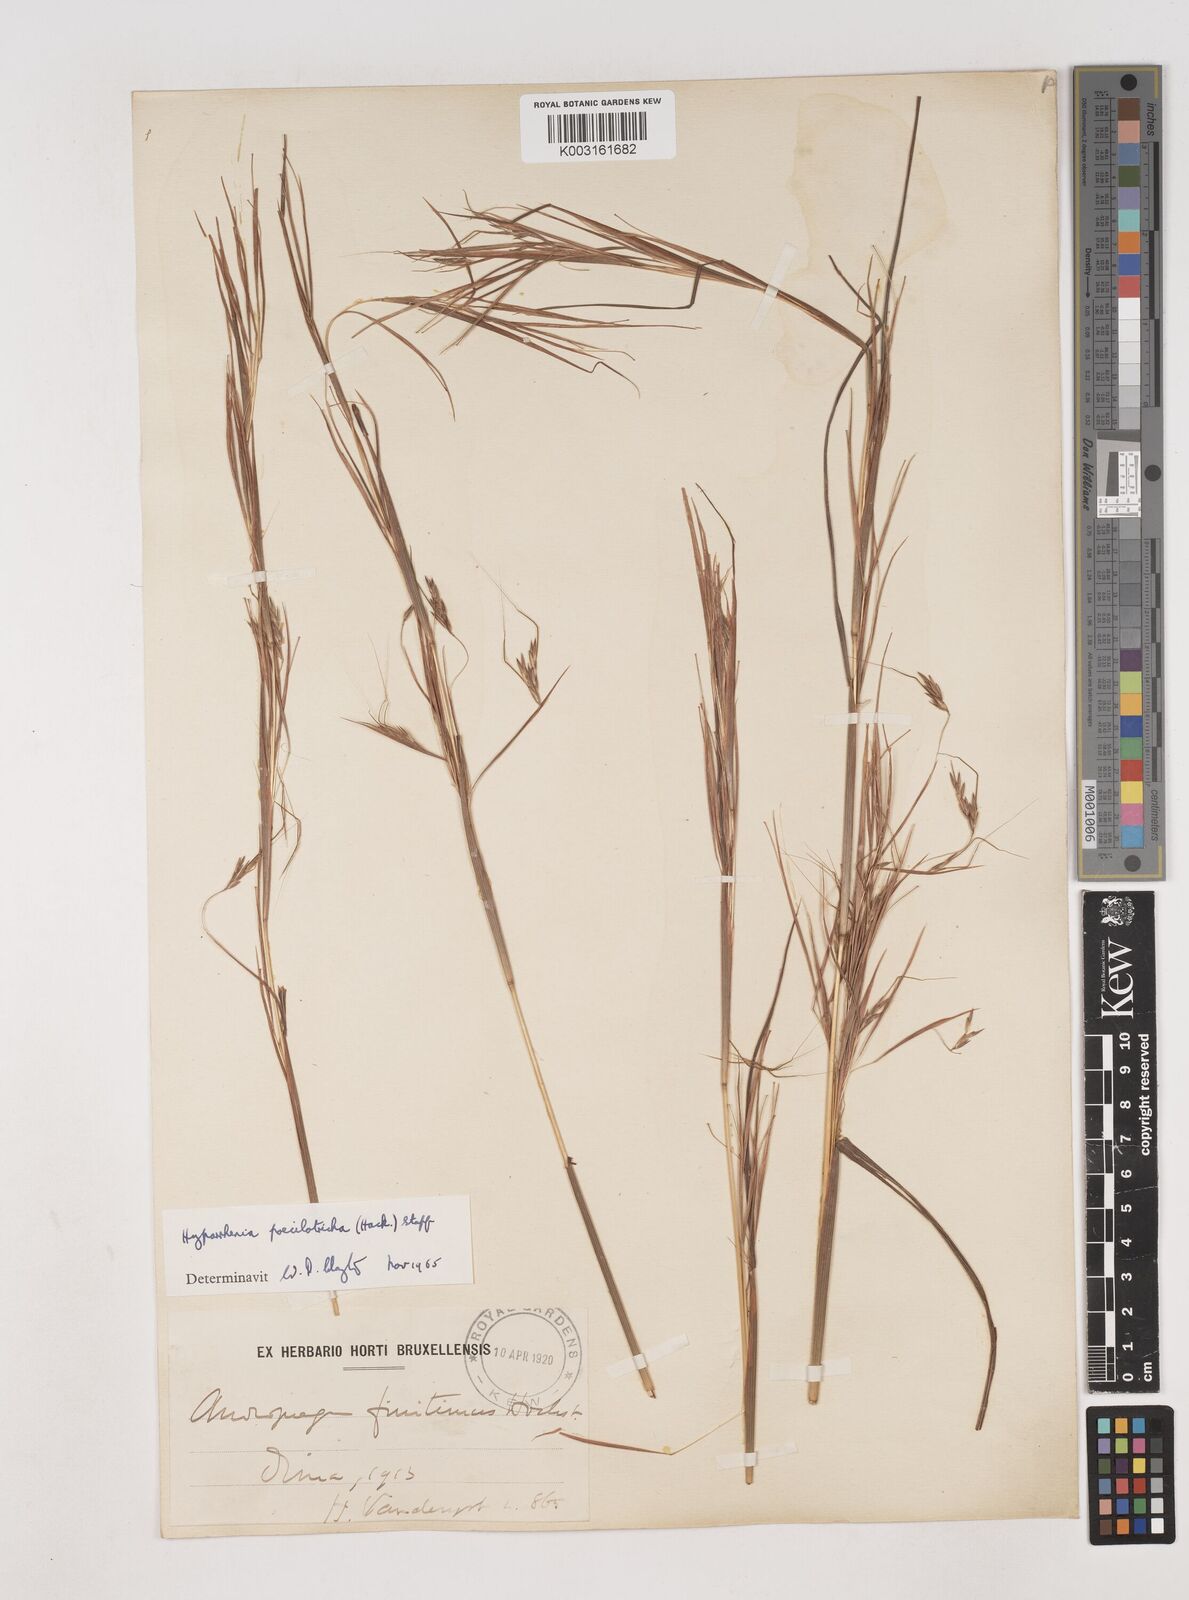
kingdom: Plantae
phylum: Tracheophyta
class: Liliopsida
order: Poales
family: Poaceae
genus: Hyparrhenia
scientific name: Hyparrhenia poecilotricha
